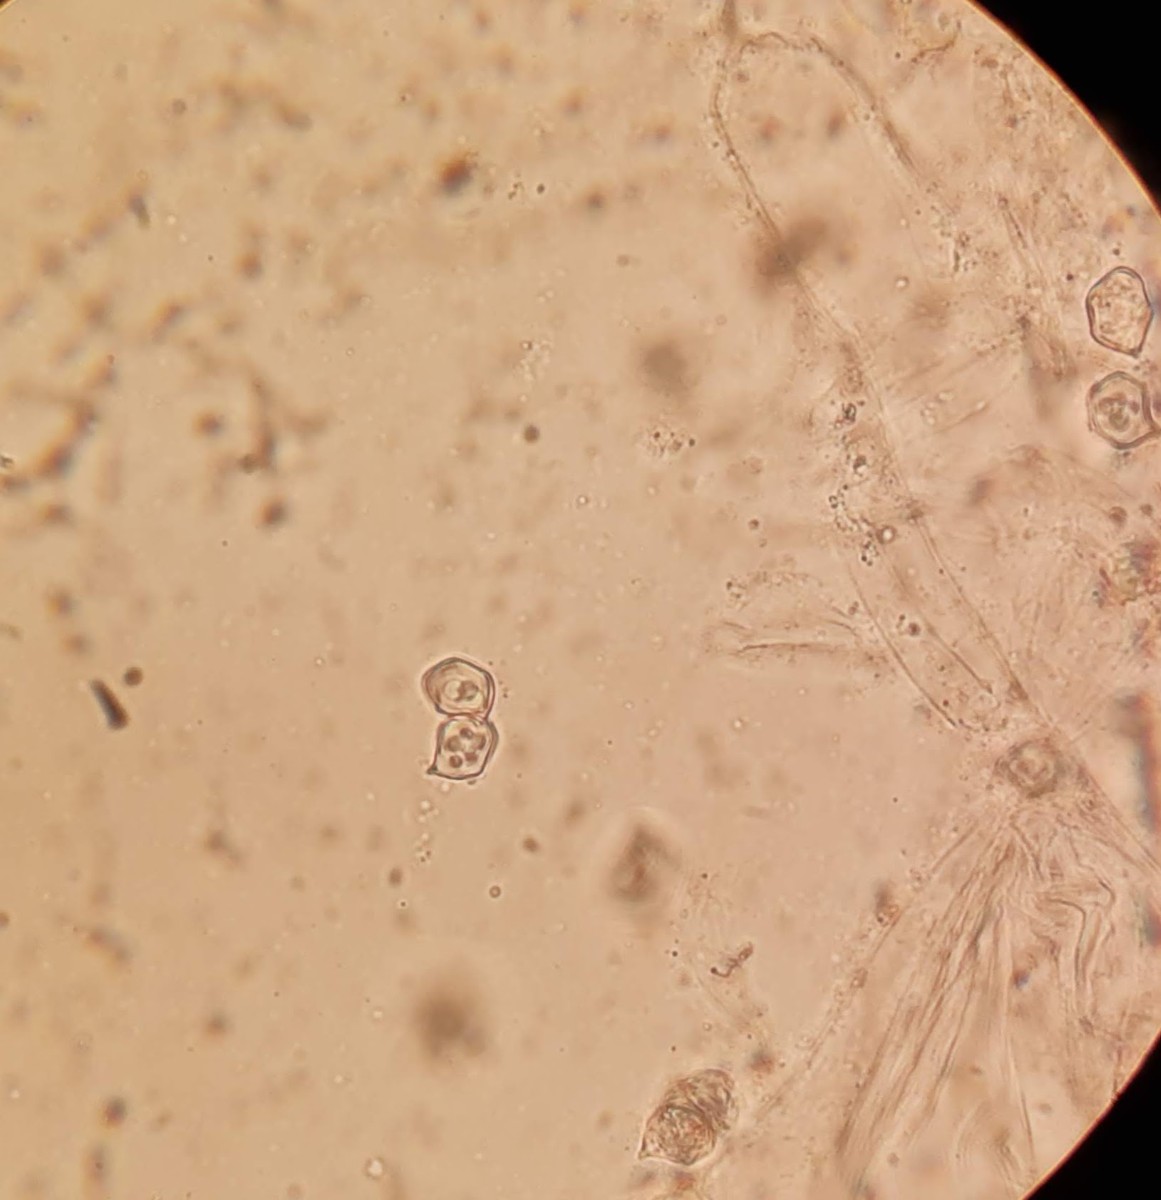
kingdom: Fungi
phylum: Basidiomycota
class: Agaricomycetes
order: Agaricales
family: Entolomataceae
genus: Entoloma
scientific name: Entoloma ventricosum
